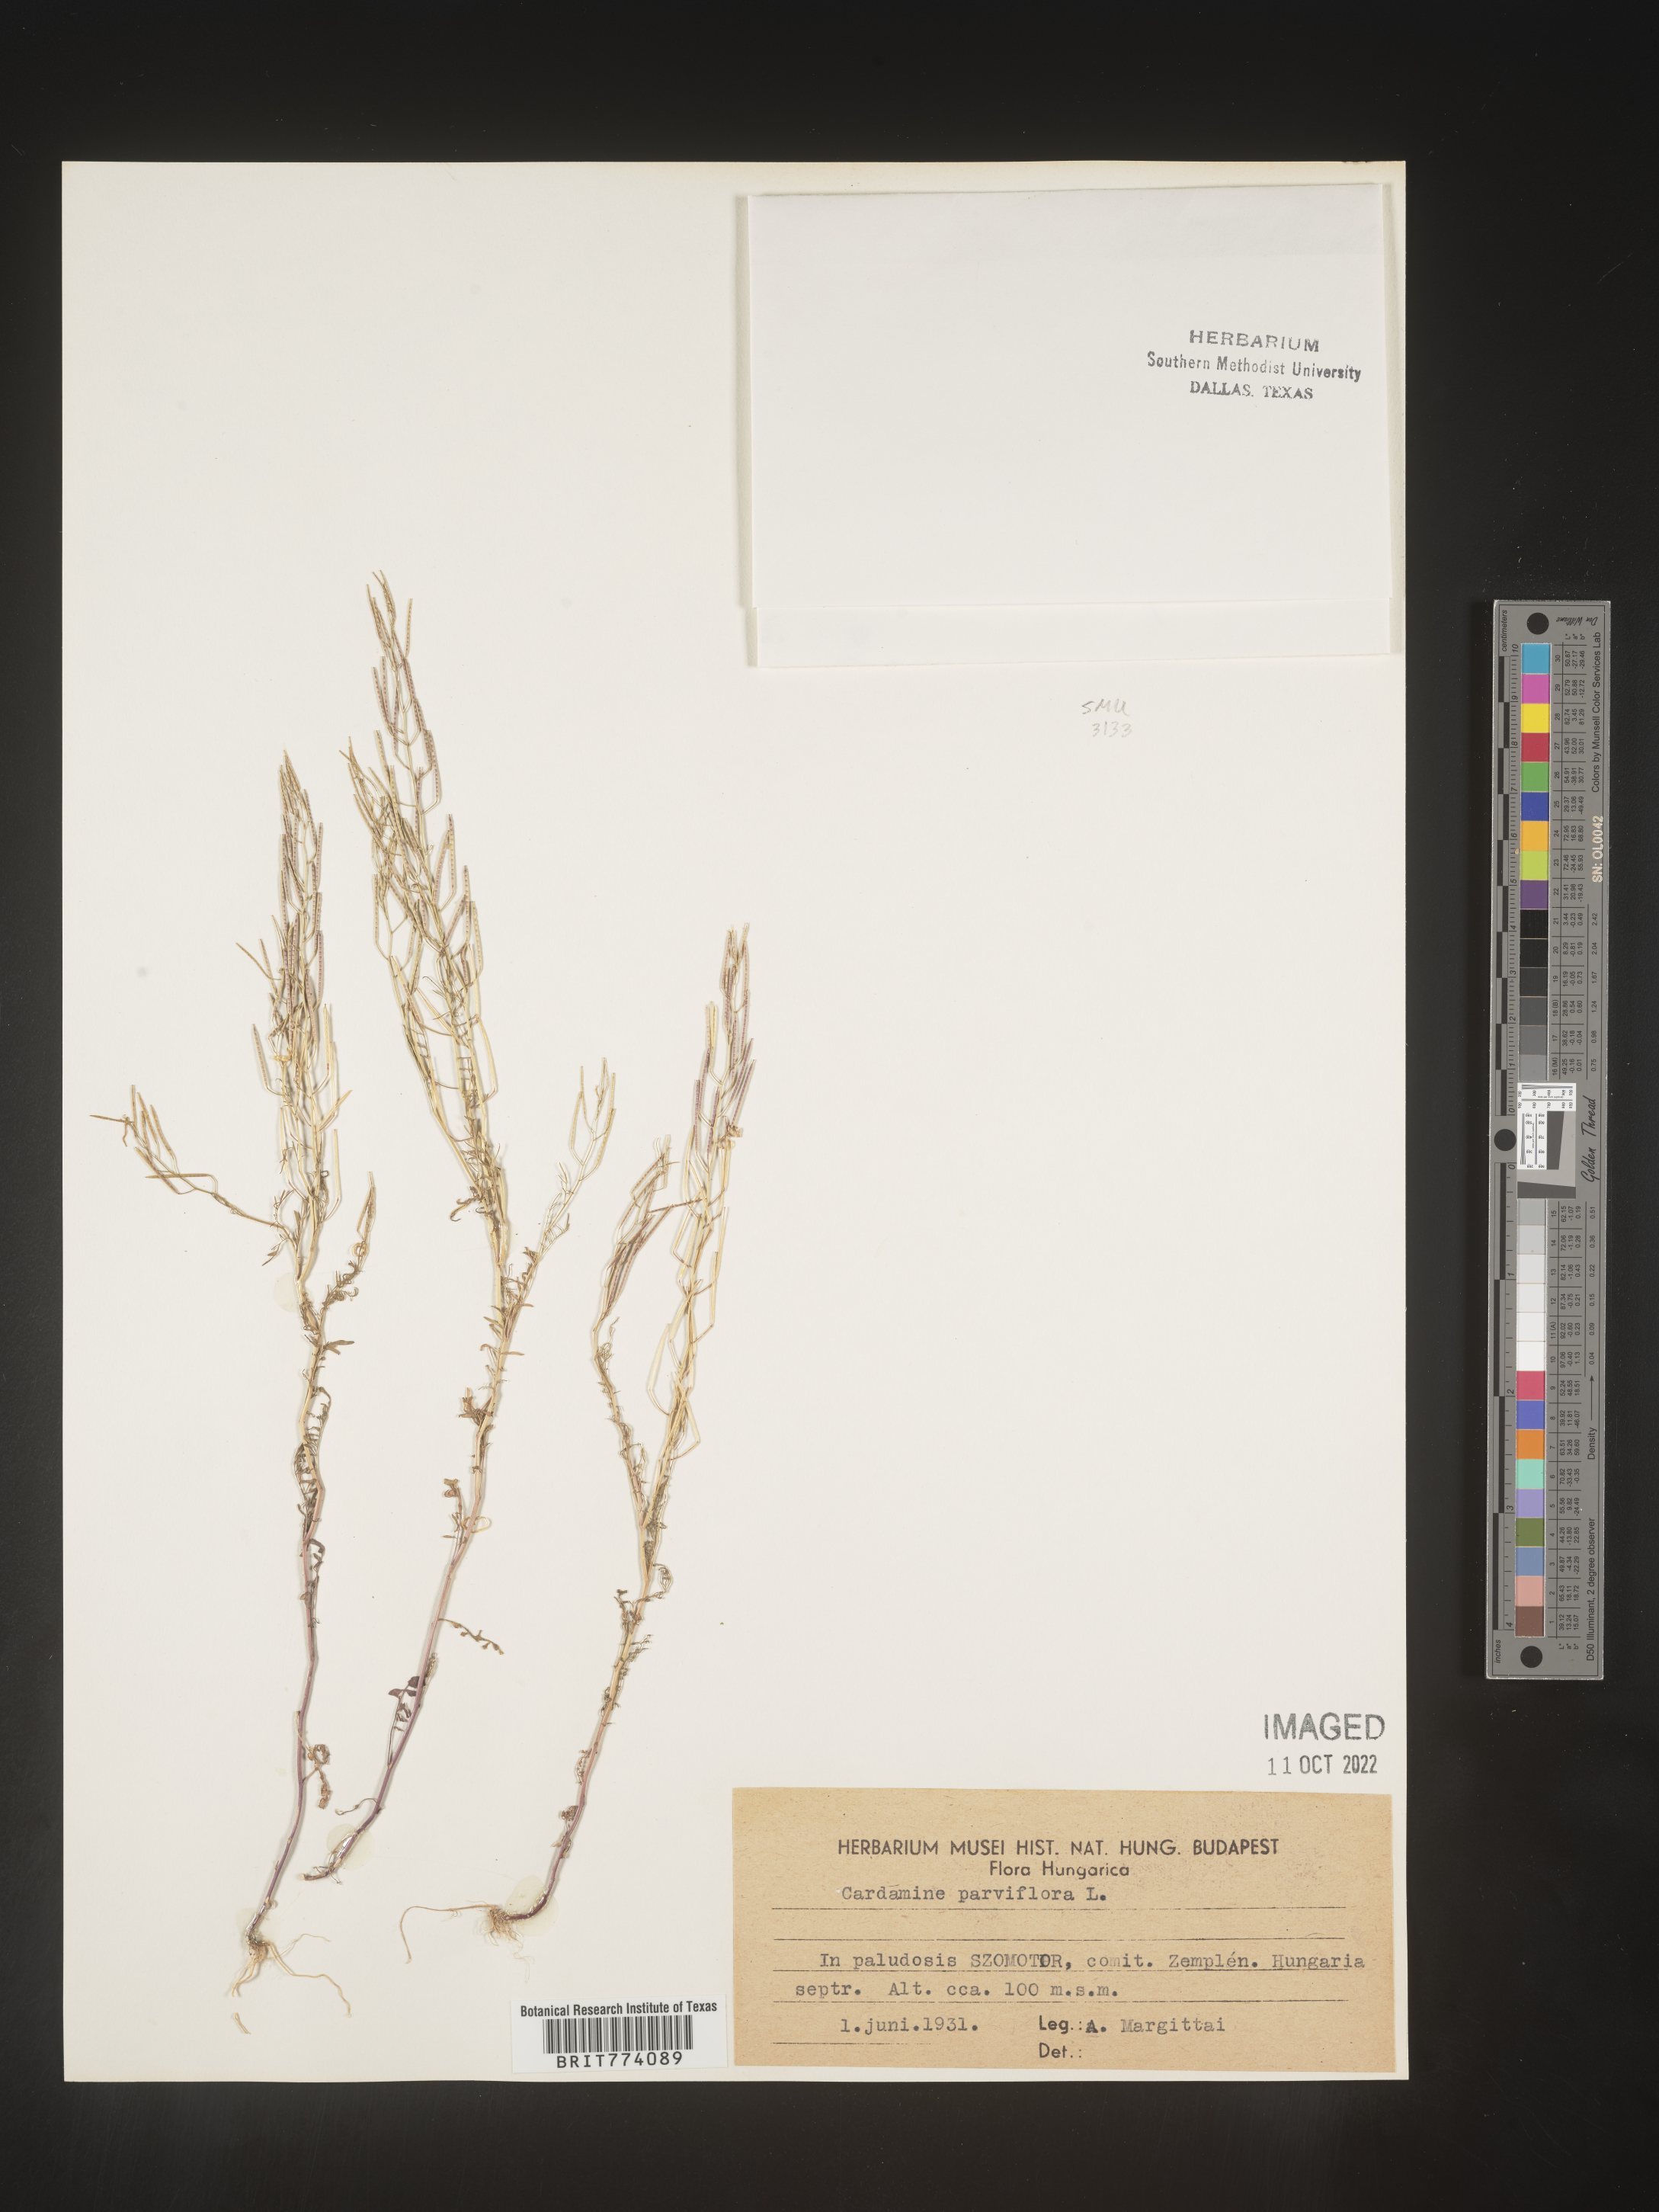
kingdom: Plantae
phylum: Tracheophyta
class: Magnoliopsida
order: Brassicales
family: Brassicaceae
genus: Cardamine
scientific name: Cardamine
